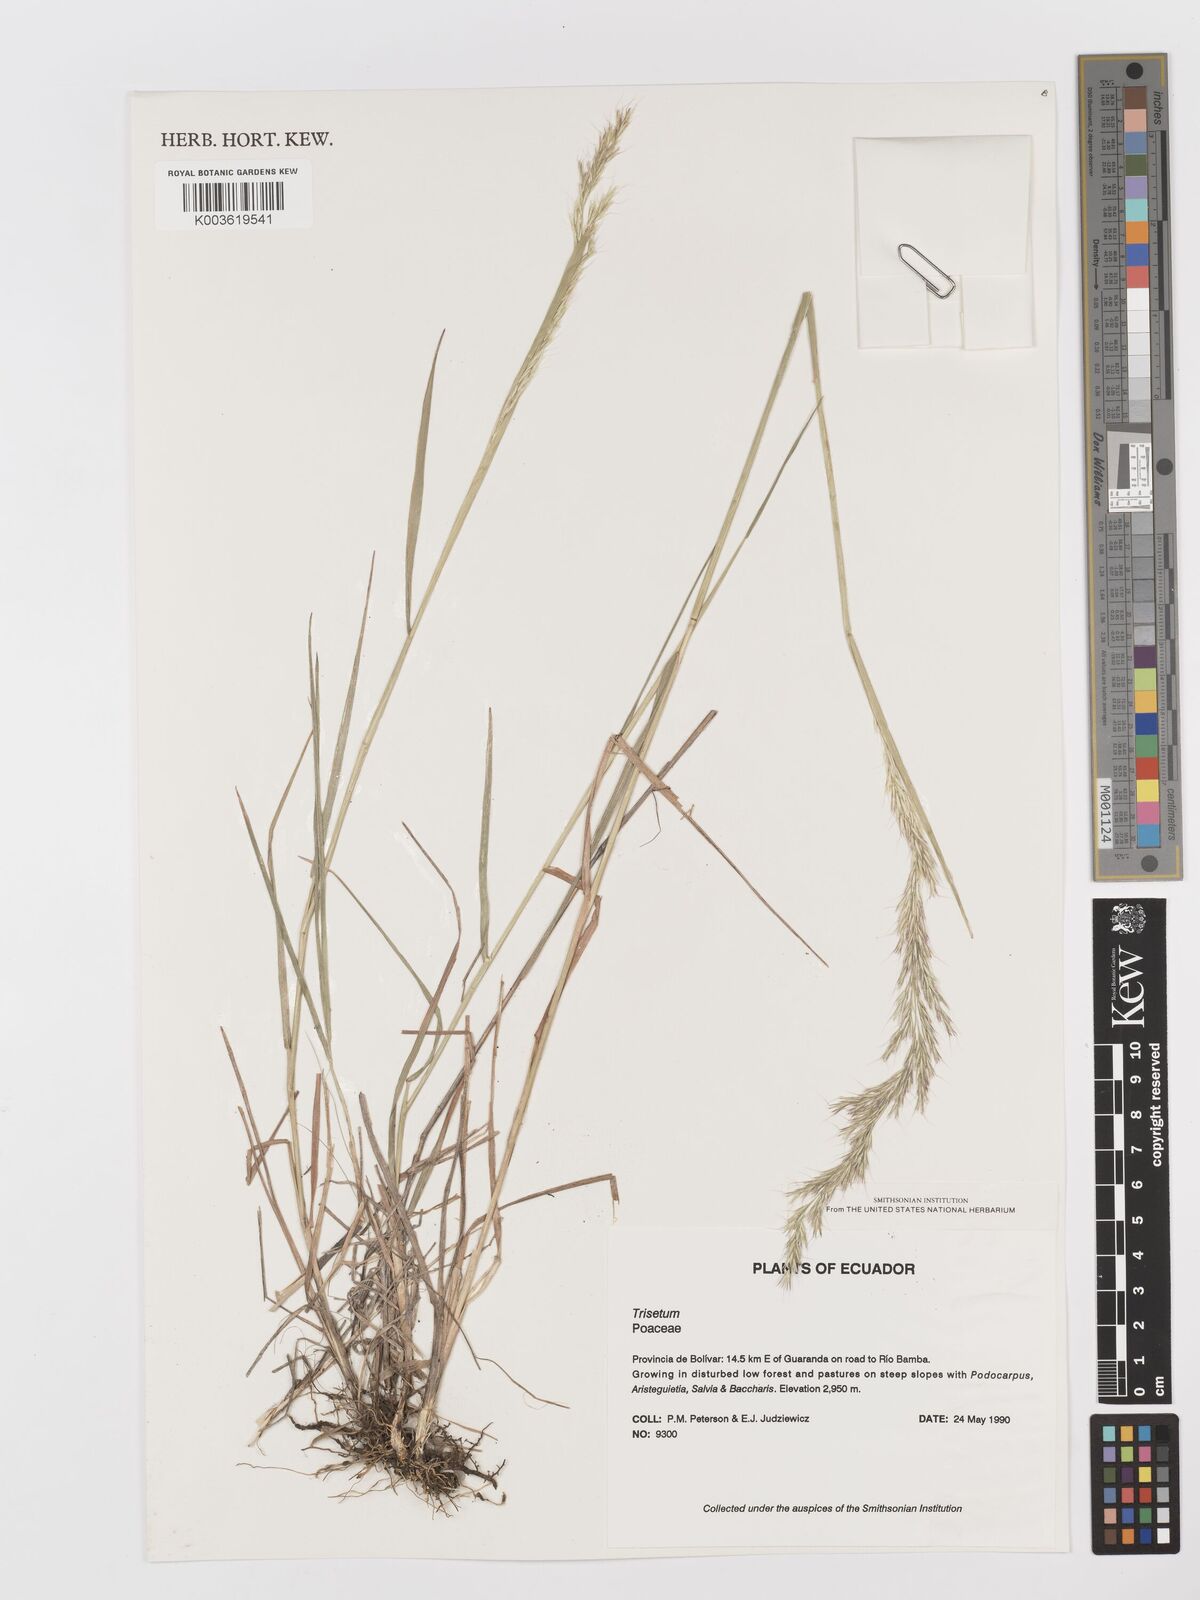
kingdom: Plantae
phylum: Tracheophyta
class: Liliopsida
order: Poales
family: Poaceae
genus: Peyritschia
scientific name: Peyritschia deyeuxioides
